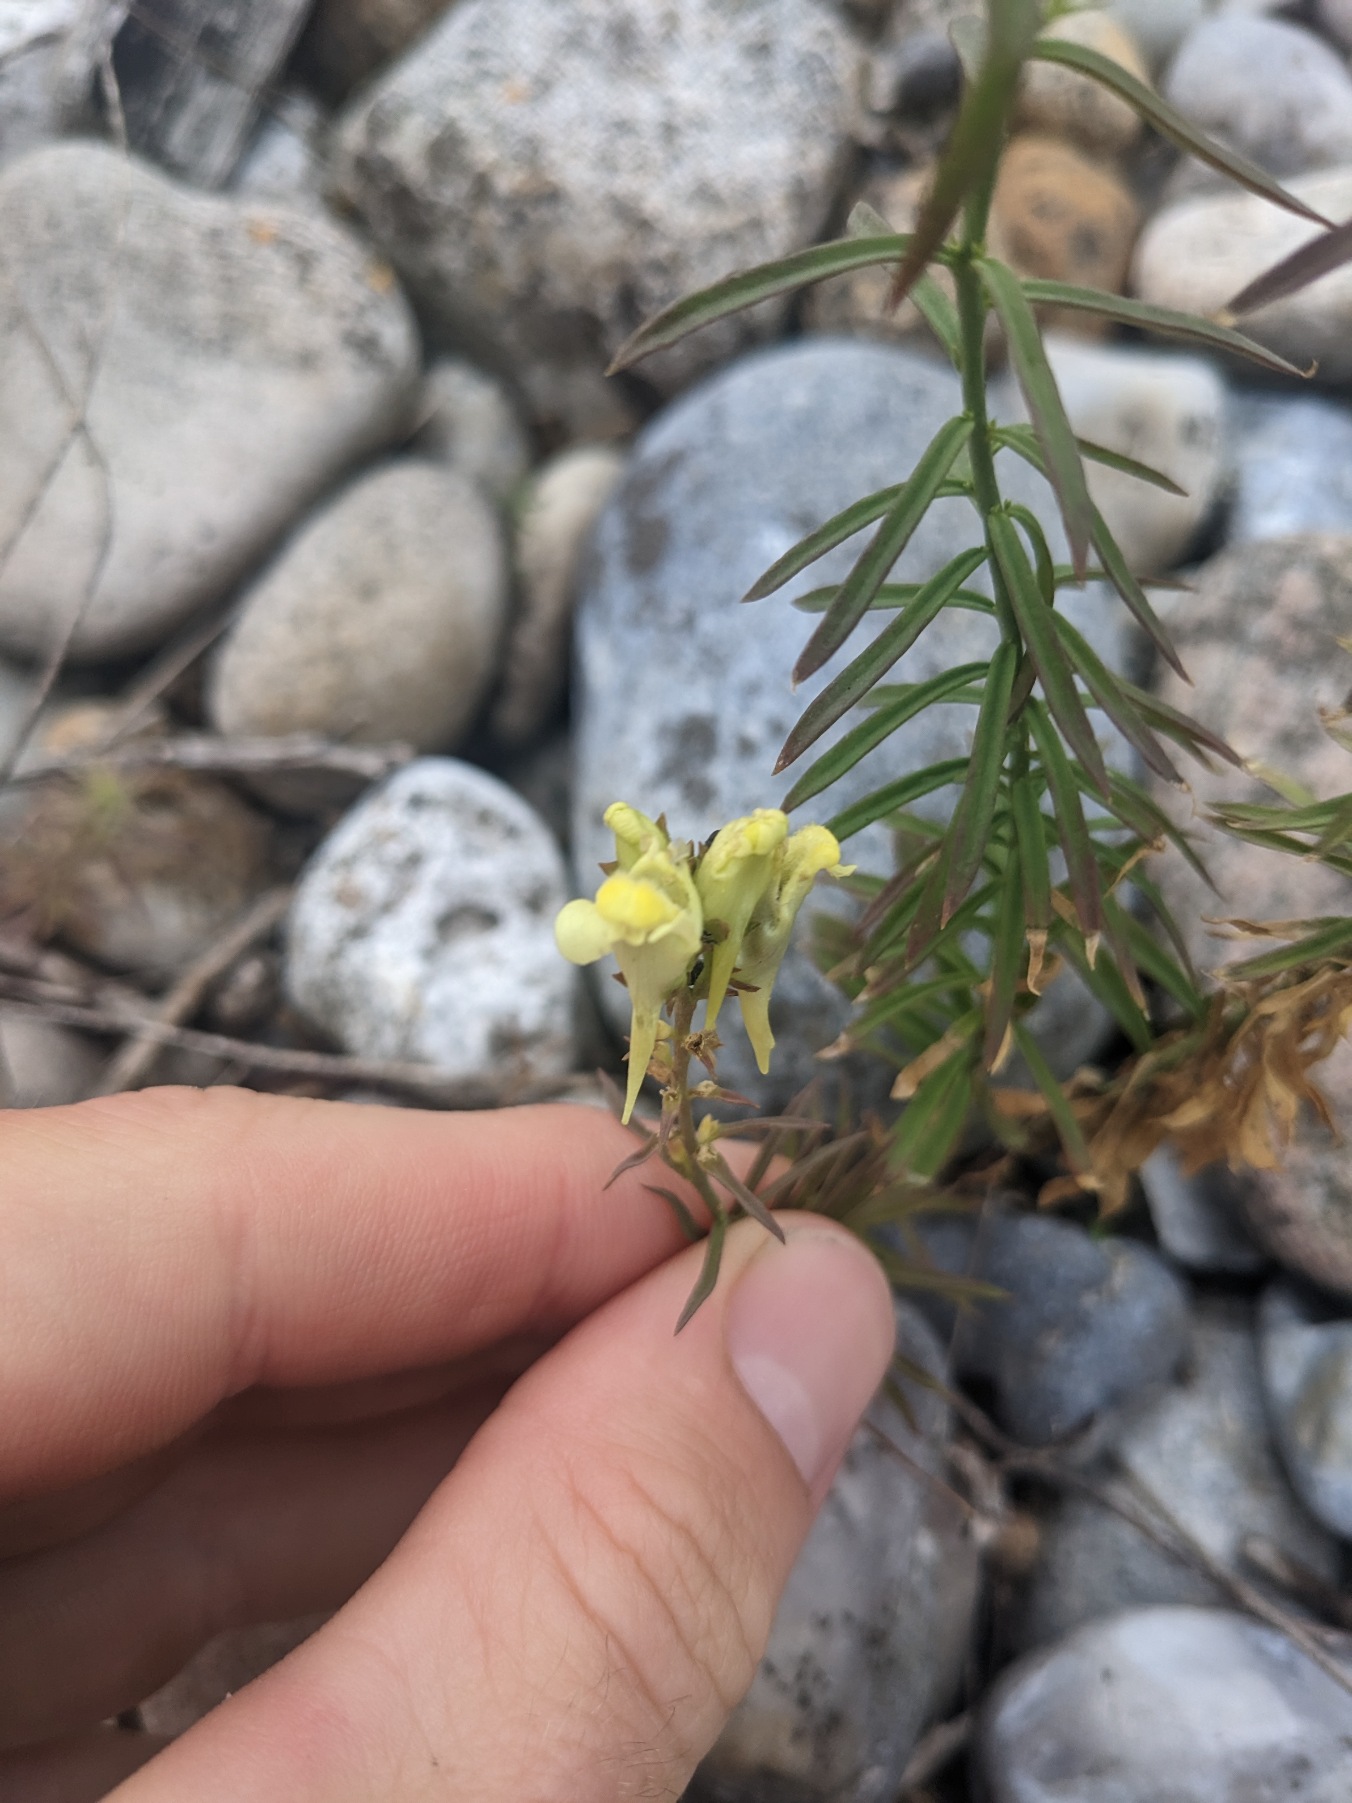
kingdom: Plantae
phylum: Tracheophyta
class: Magnoliopsida
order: Lamiales
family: Plantaginaceae
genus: Linaria
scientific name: Linaria vulgaris
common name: Almindelig torskemund
